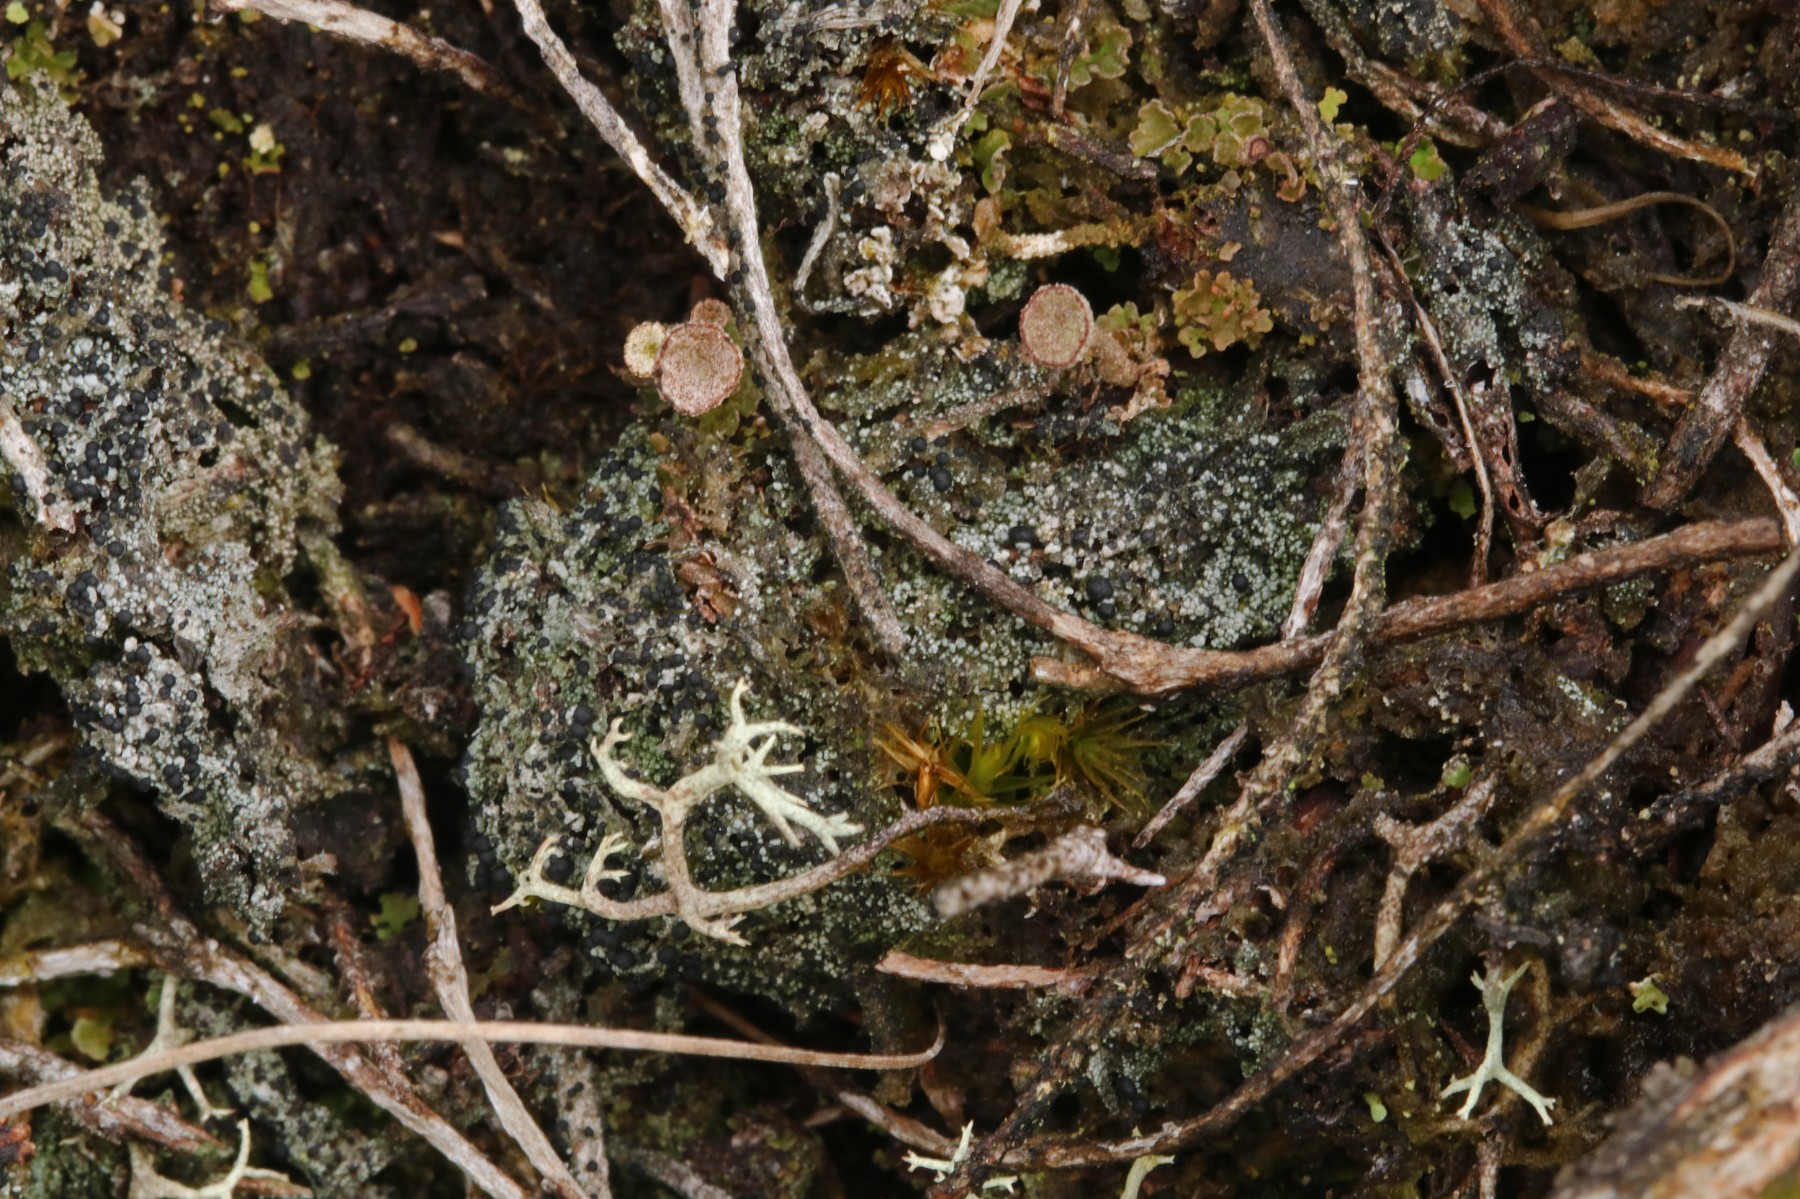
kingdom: Fungi
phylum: Ascomycota
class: Lecanoromycetes
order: Lecanorales
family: Byssolomataceae
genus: Micarea
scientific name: Micarea lignaria
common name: tørve-knaplav
